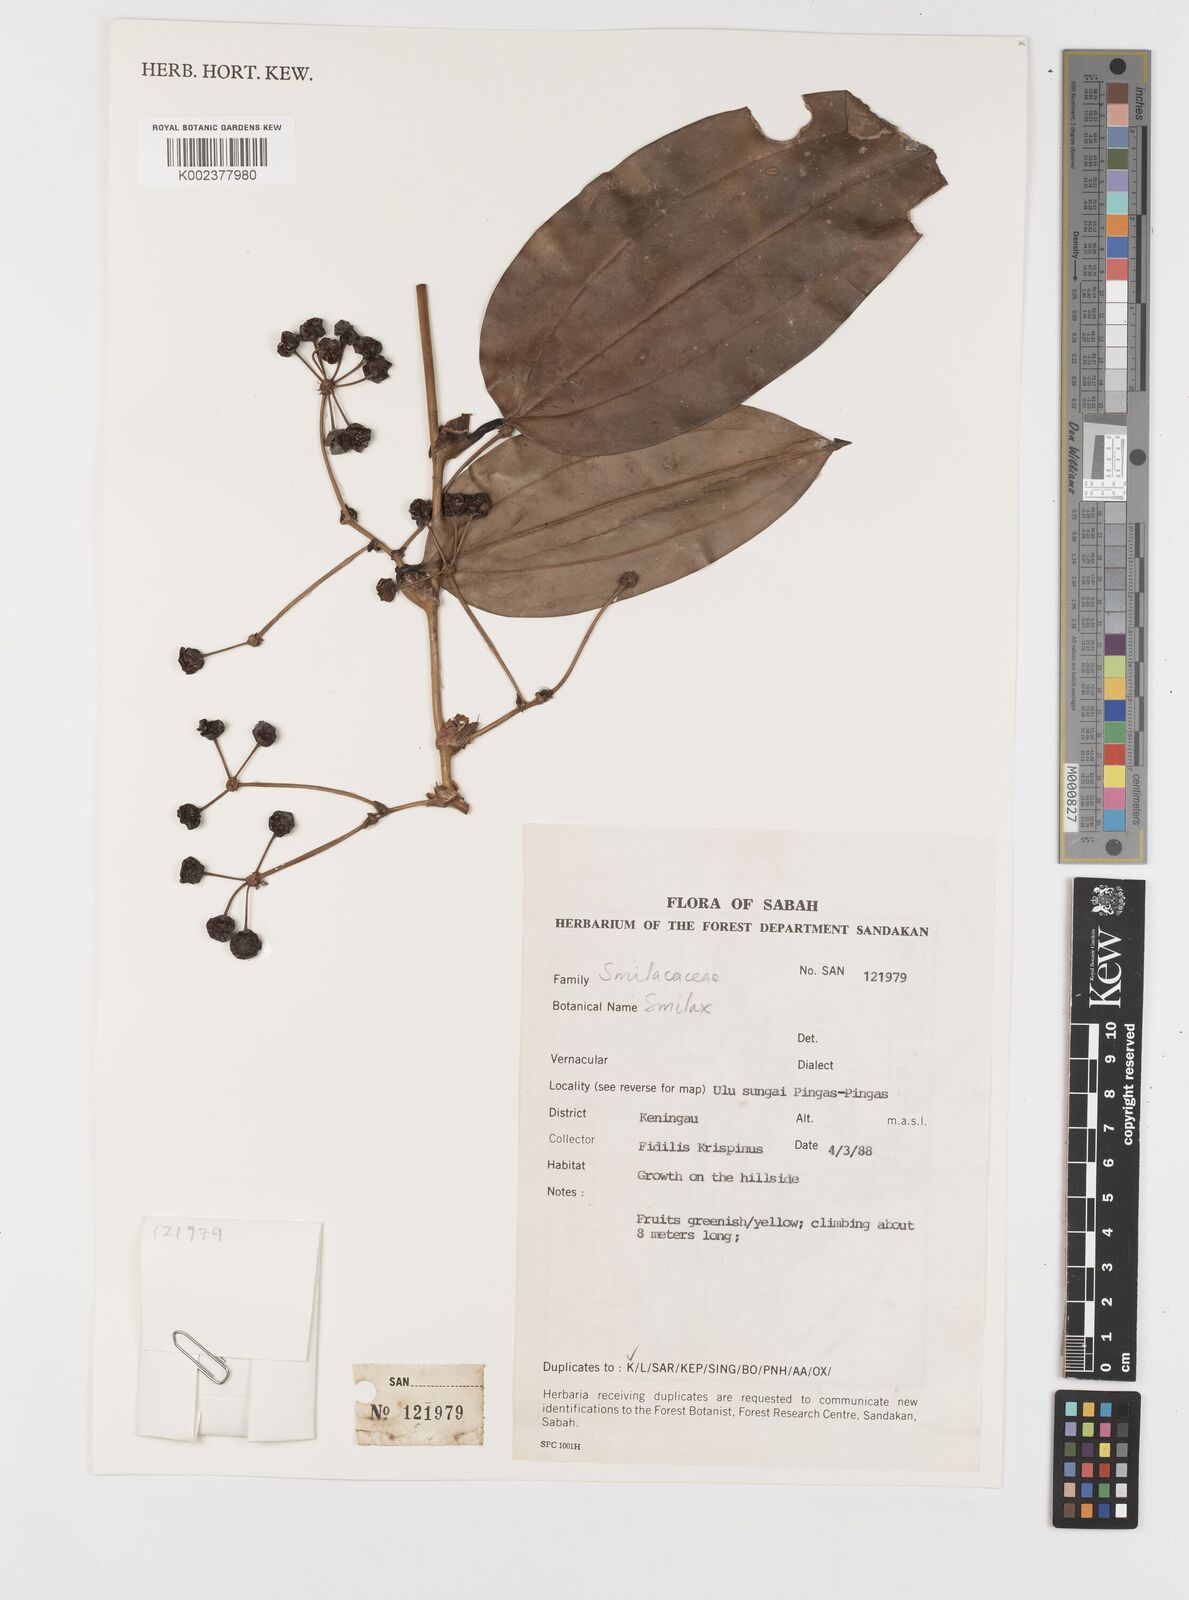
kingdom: Plantae
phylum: Tracheophyta
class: Liliopsida
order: Liliales
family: Smilacaceae
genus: Smilax
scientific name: Smilax
